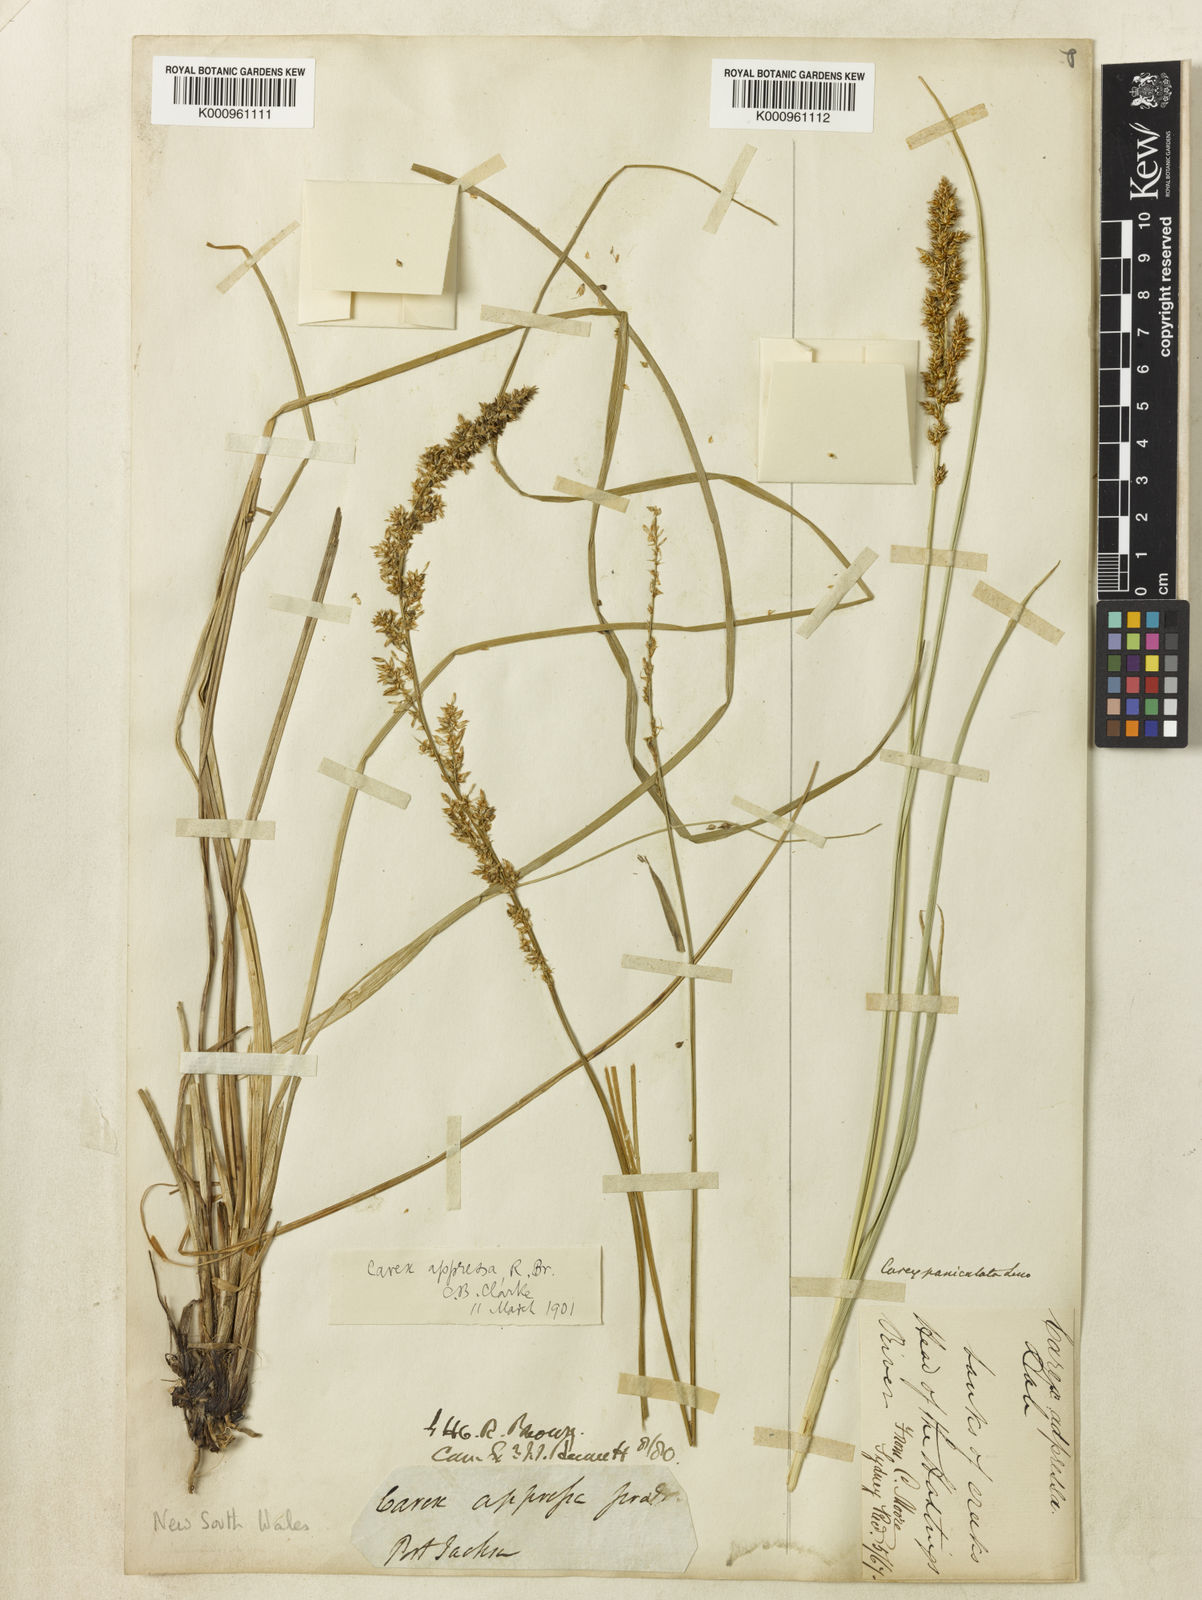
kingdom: Plantae
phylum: Tracheophyta
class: Liliopsida
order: Poales
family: Cyperaceae
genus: Carex
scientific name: Carex appressa
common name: Tussock sedge
